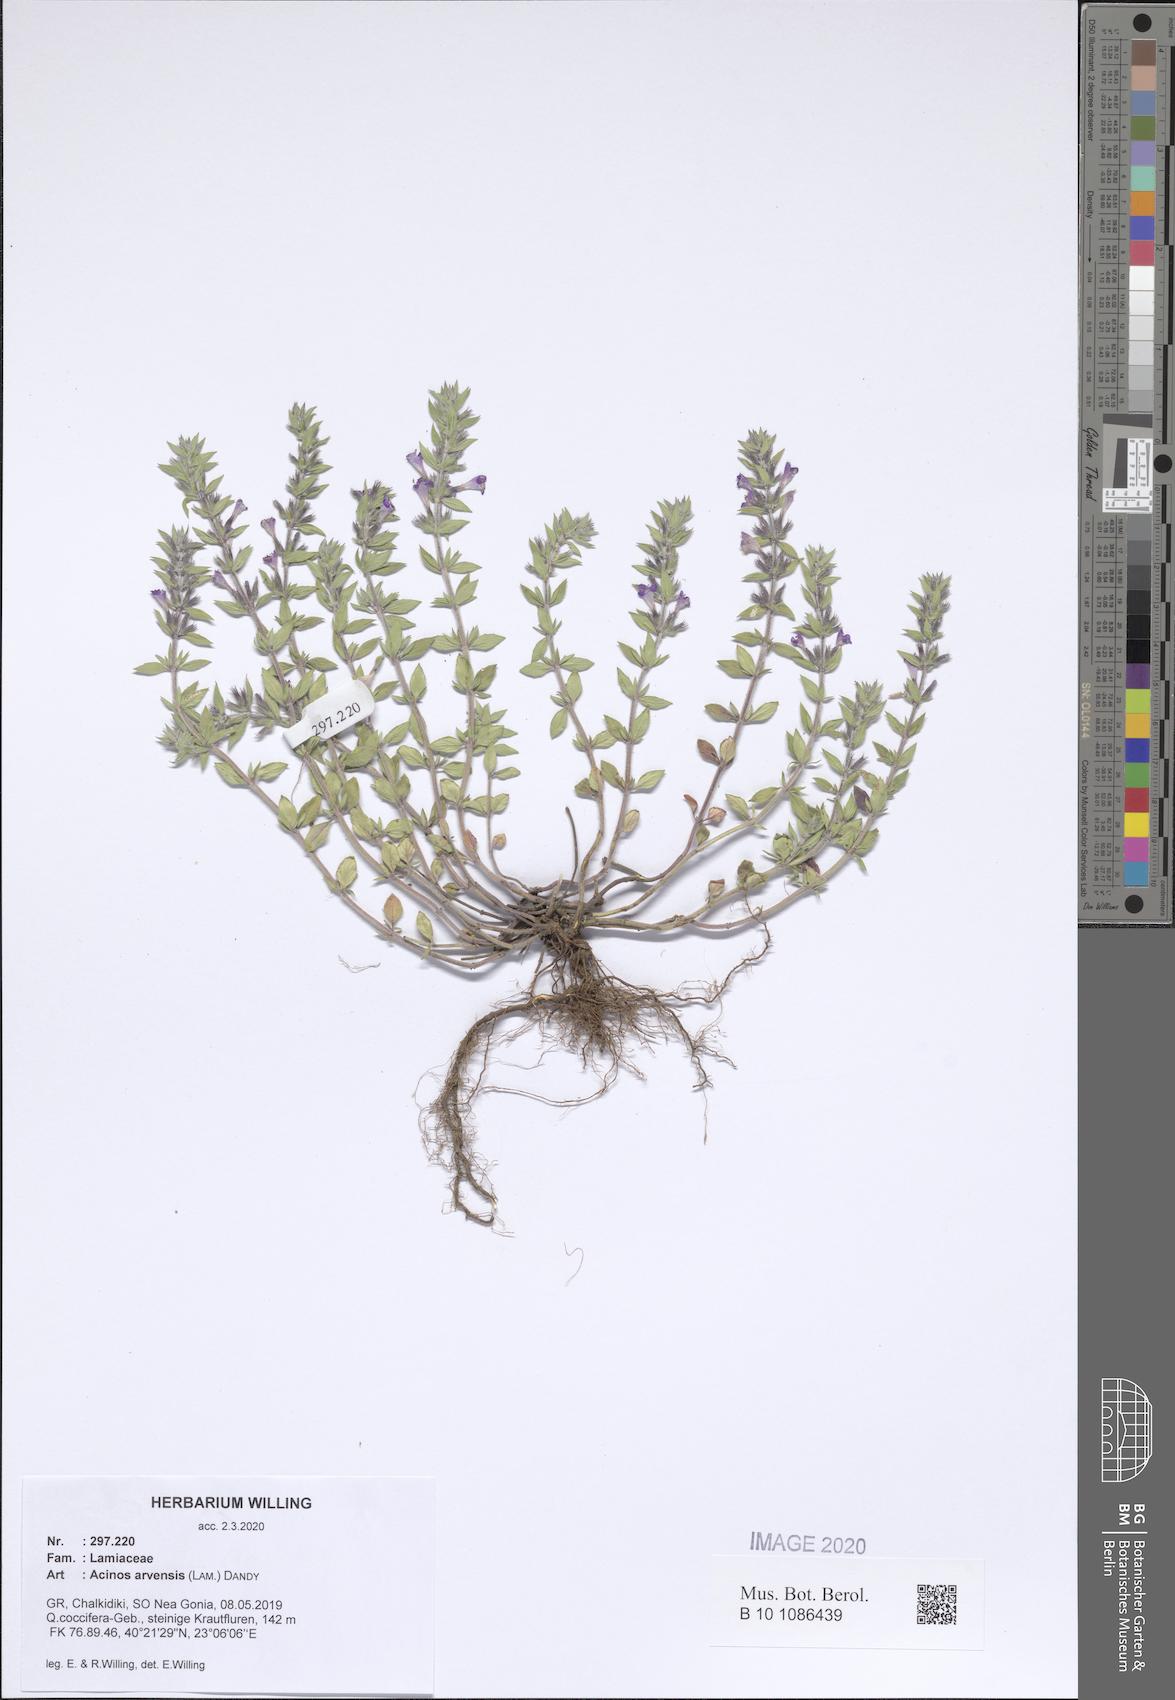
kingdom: Plantae
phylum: Tracheophyta
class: Magnoliopsida
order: Lamiales
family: Lamiaceae
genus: Clinopodium
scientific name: Clinopodium acinos
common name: Basil thyme
